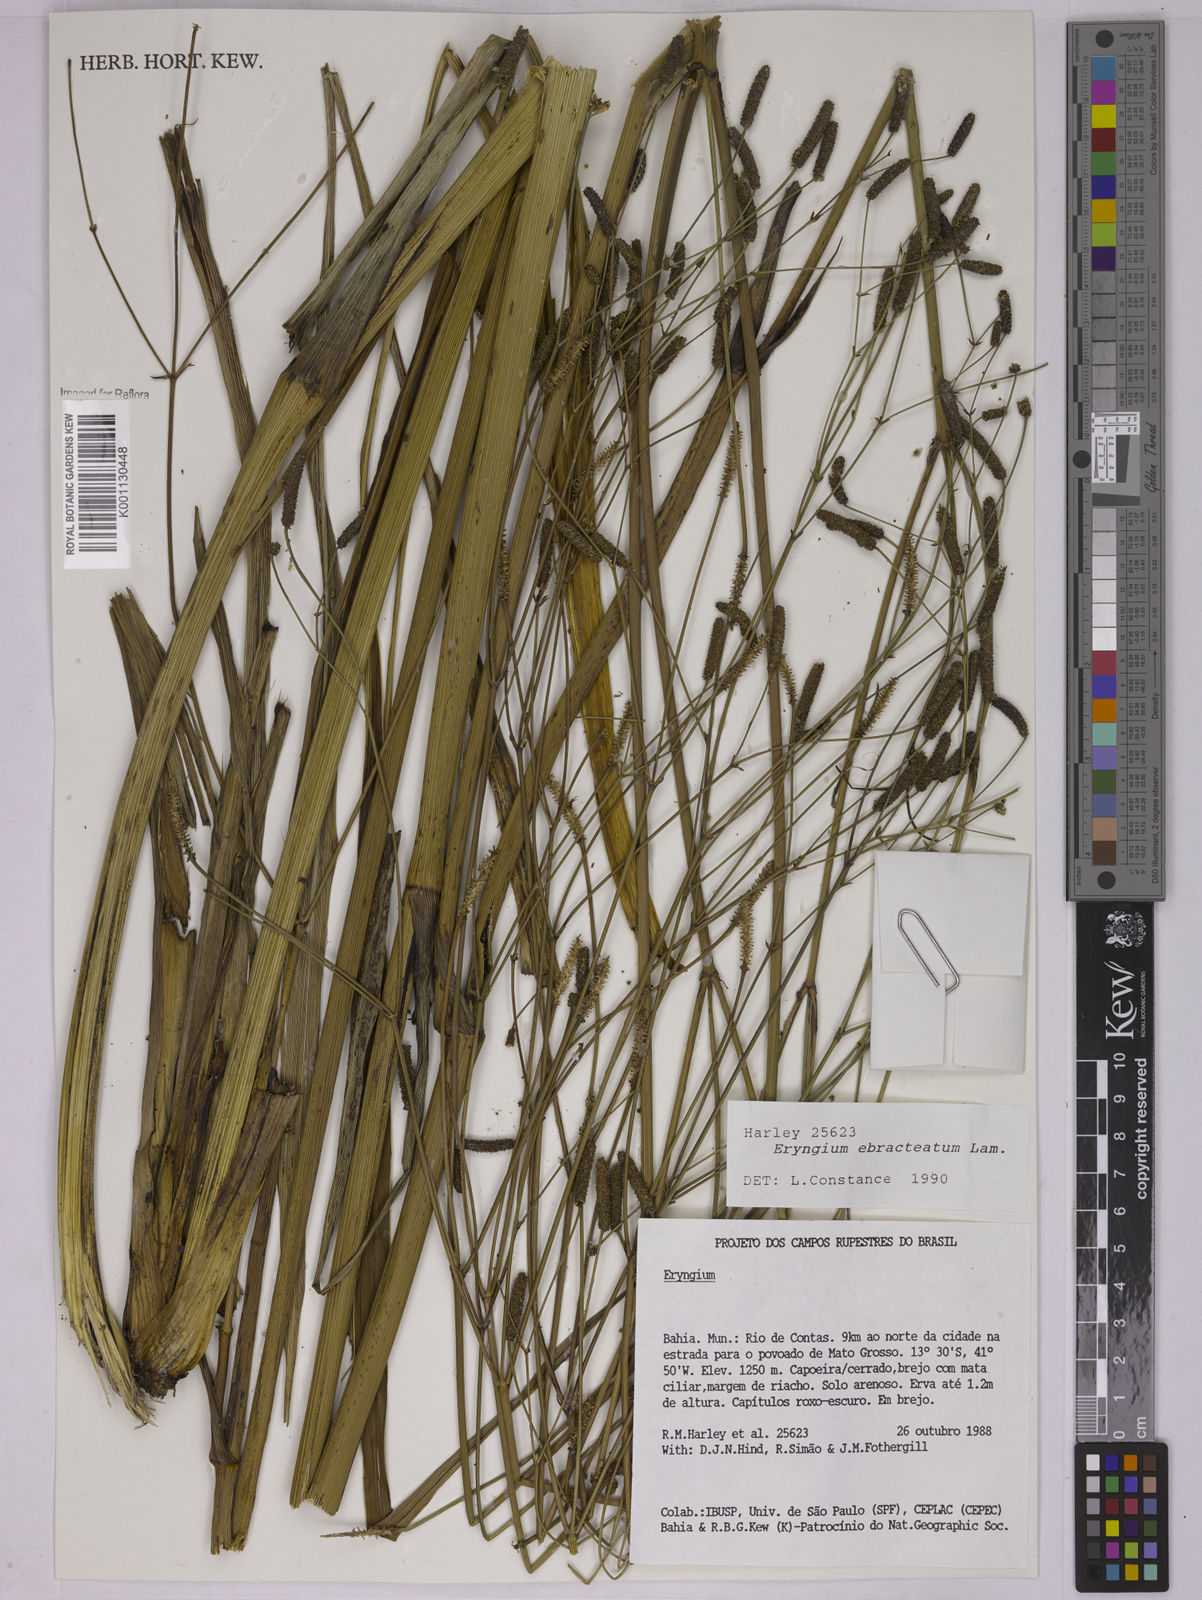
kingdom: Plantae
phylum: Tracheophyta
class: Magnoliopsida
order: Apiales
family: Apiaceae
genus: Eryngium
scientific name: Eryngium ebracteatum
